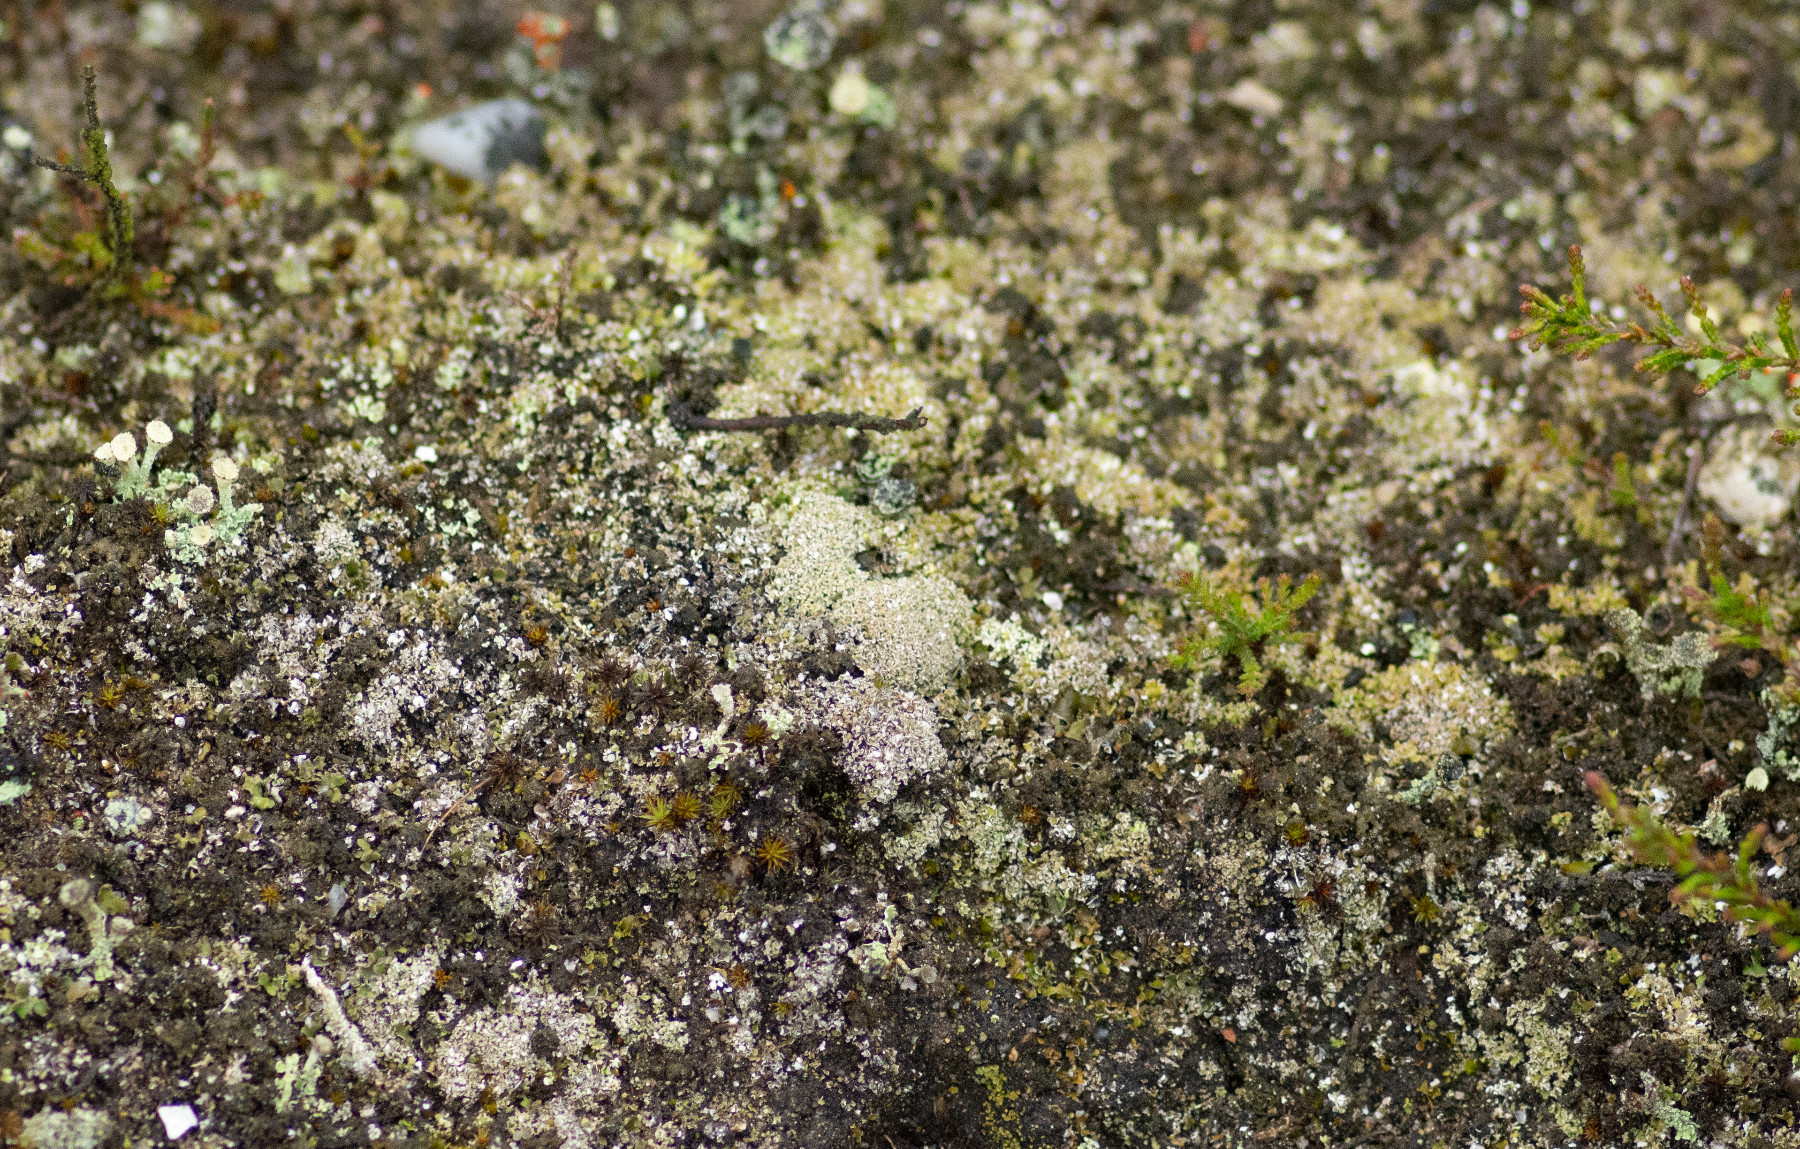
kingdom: Fungi
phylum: Ascomycota
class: Lecanoromycetes
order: Lecanorales
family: Cladoniaceae
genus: Cladonia
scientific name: Cladonia cervicornis
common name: tue-bægerlav
